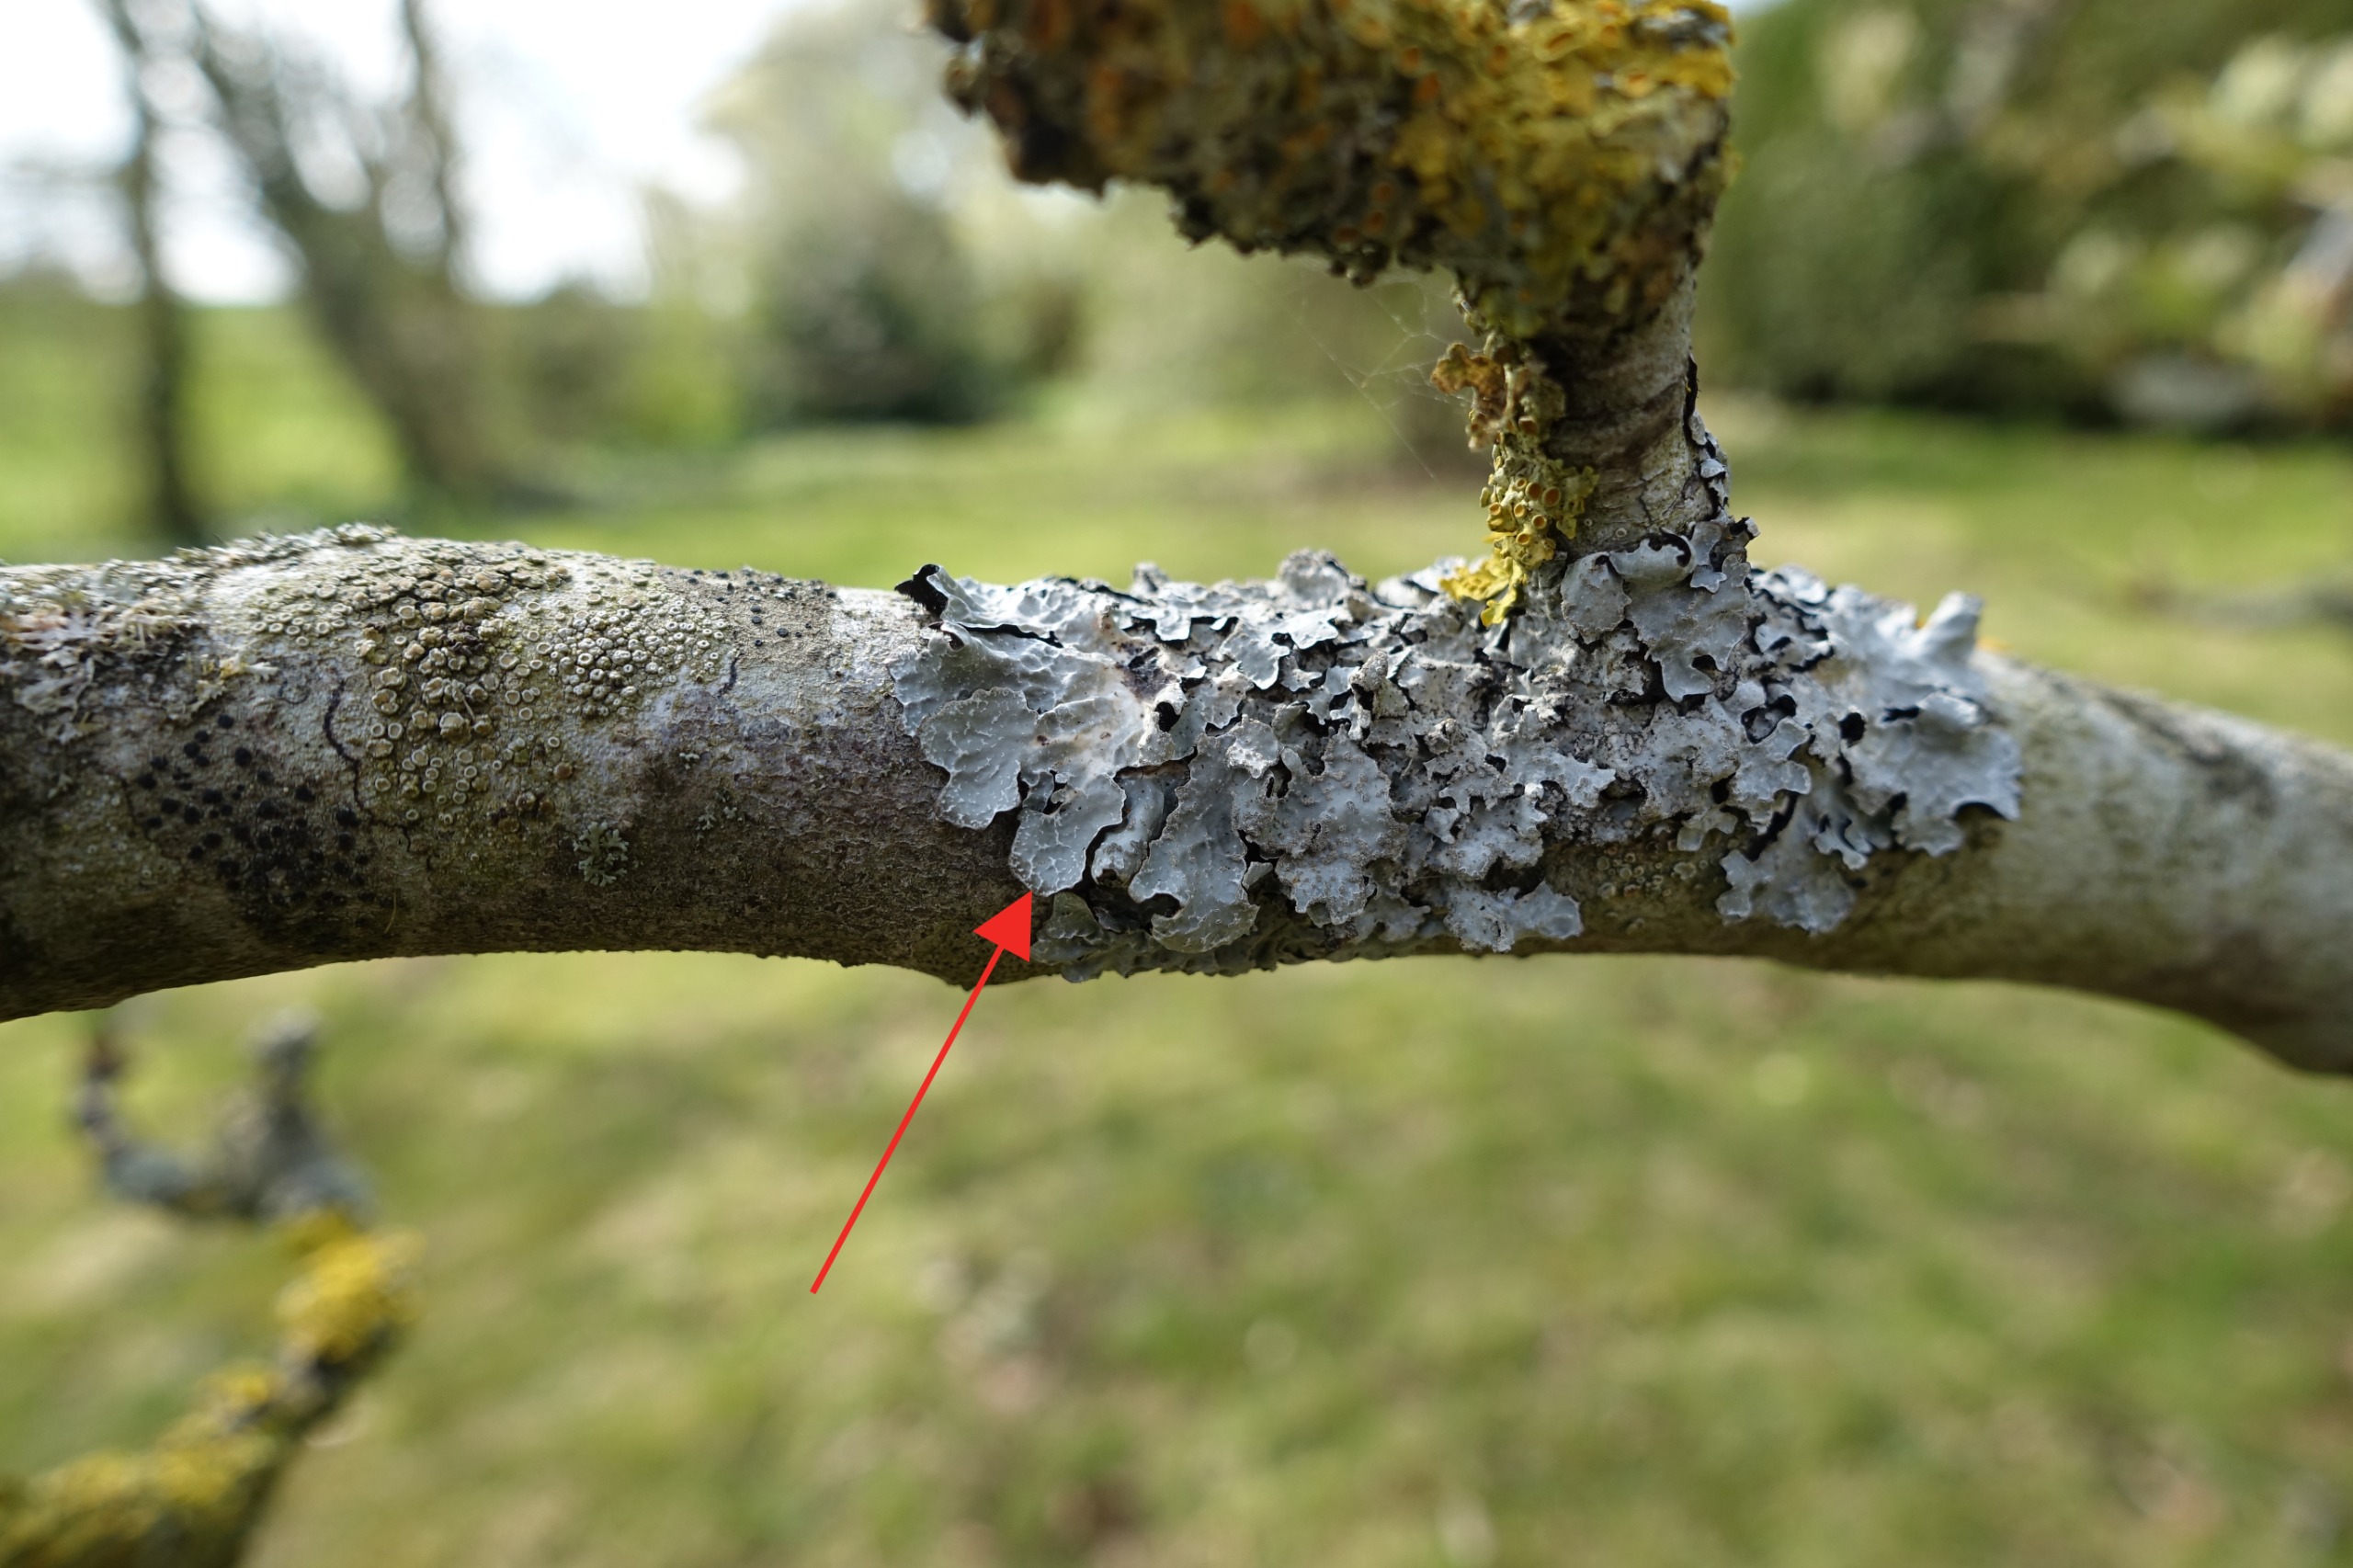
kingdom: Fungi
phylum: Ascomycota
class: Lecanoromycetes
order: Lecanorales
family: Parmeliaceae
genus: Parmelia
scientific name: Parmelia sulcata
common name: Rynket skållav
